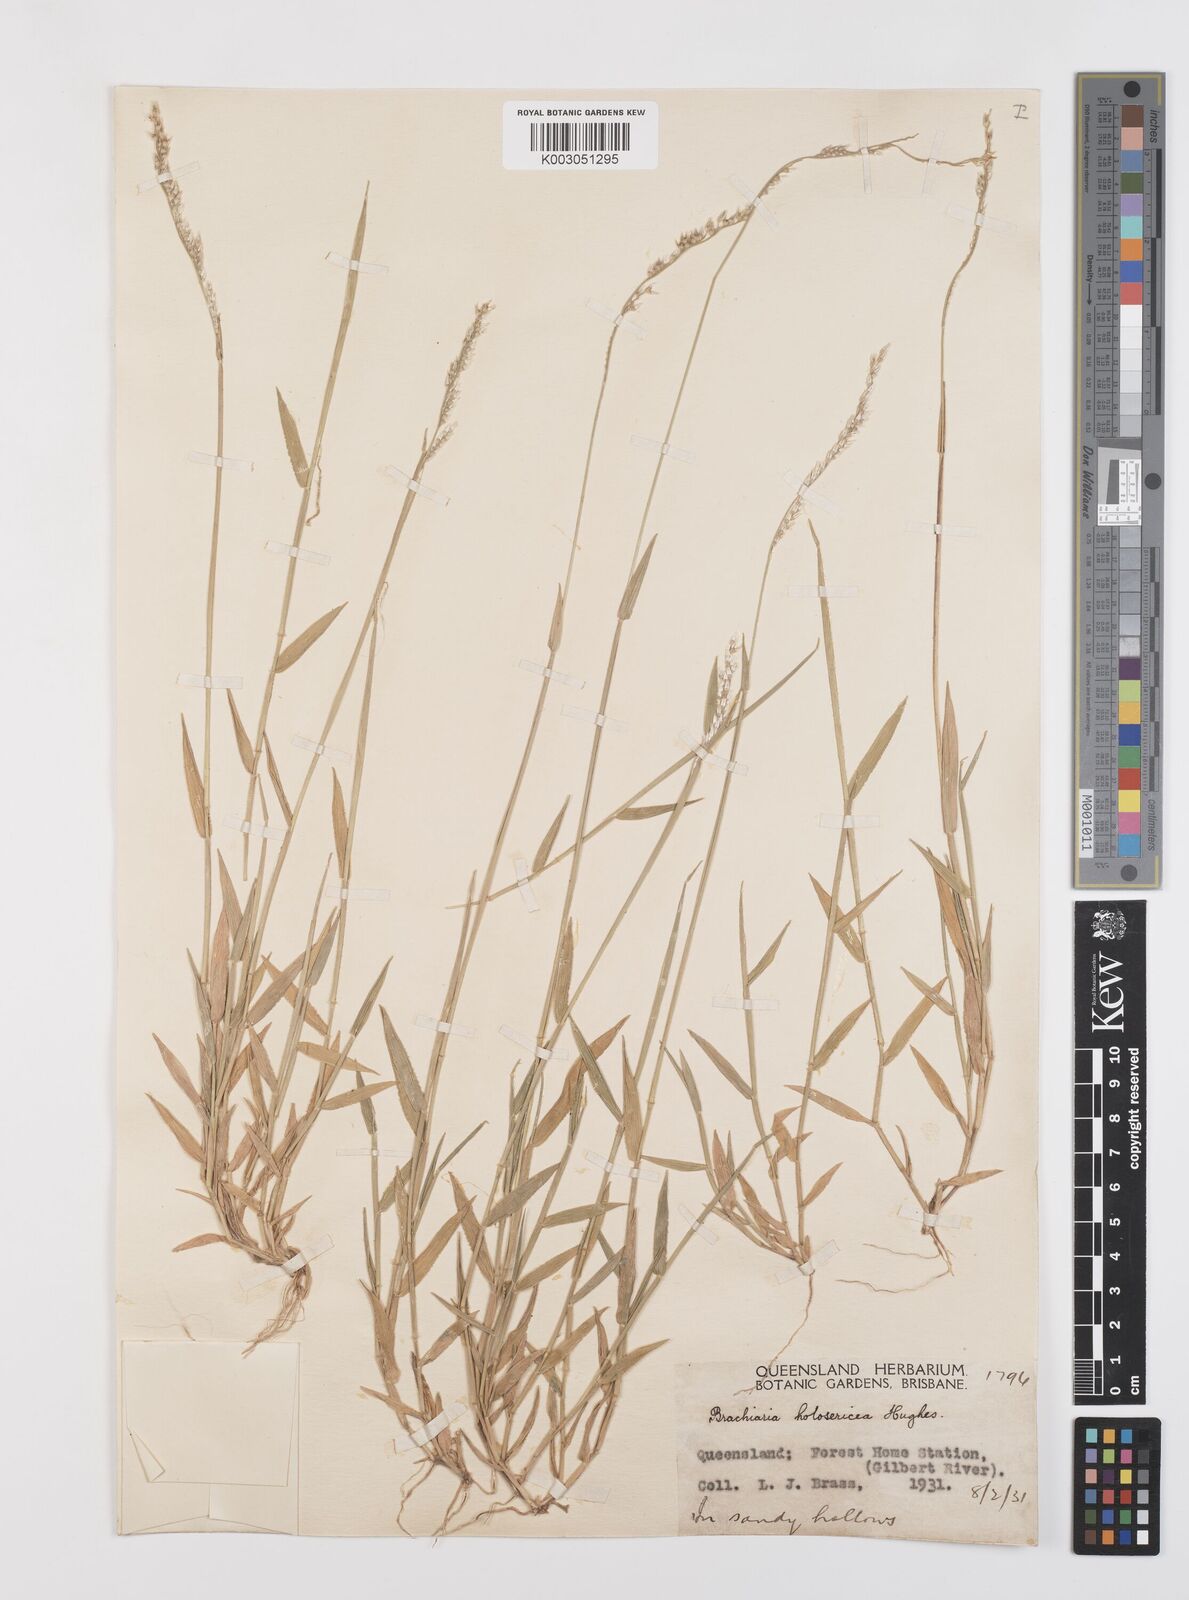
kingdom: Plantae
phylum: Tracheophyta
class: Liliopsida
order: Poales
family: Poaceae
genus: Urochloa
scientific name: Urochloa holosericea
